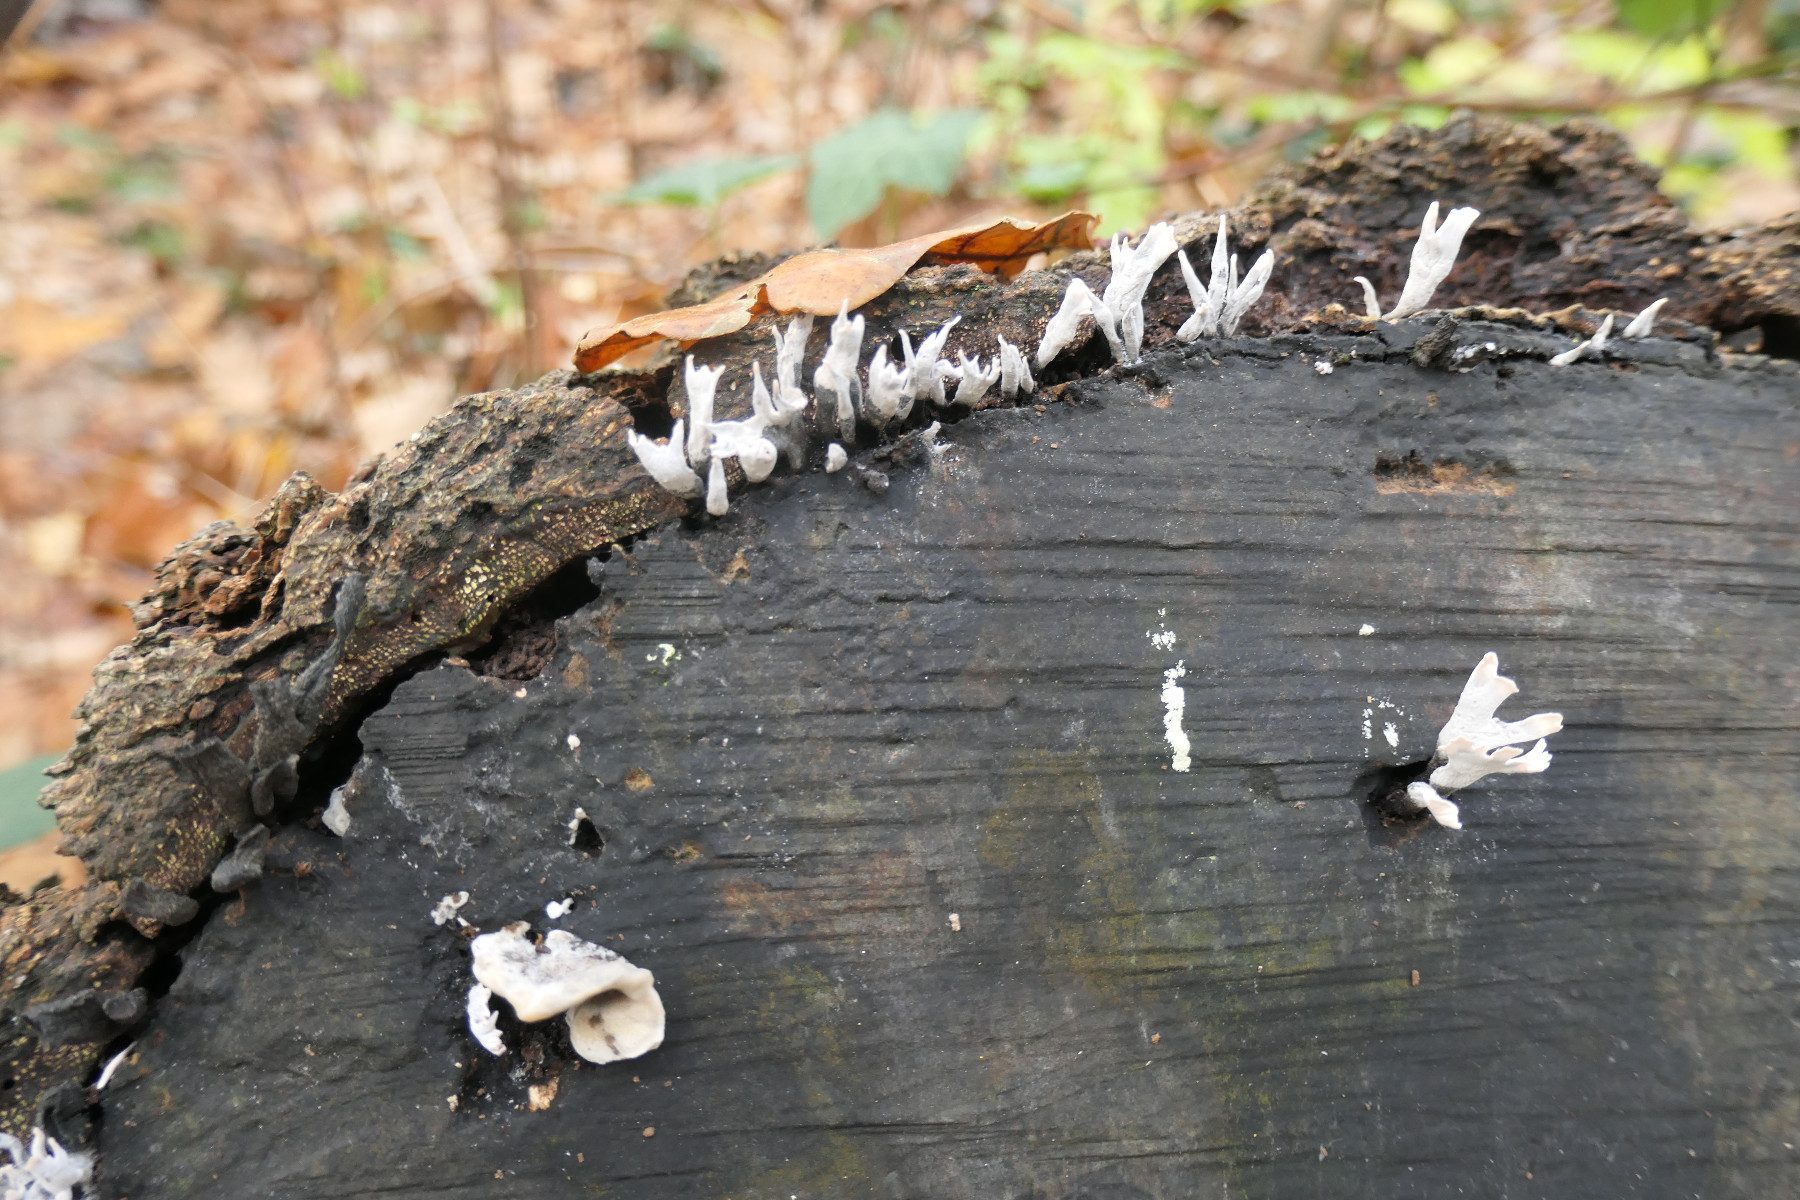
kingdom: Fungi
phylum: Ascomycota
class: Sordariomycetes
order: Xylariales
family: Xylariaceae
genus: Xylaria
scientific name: Xylaria hypoxylon
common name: grenet stødsvamp
